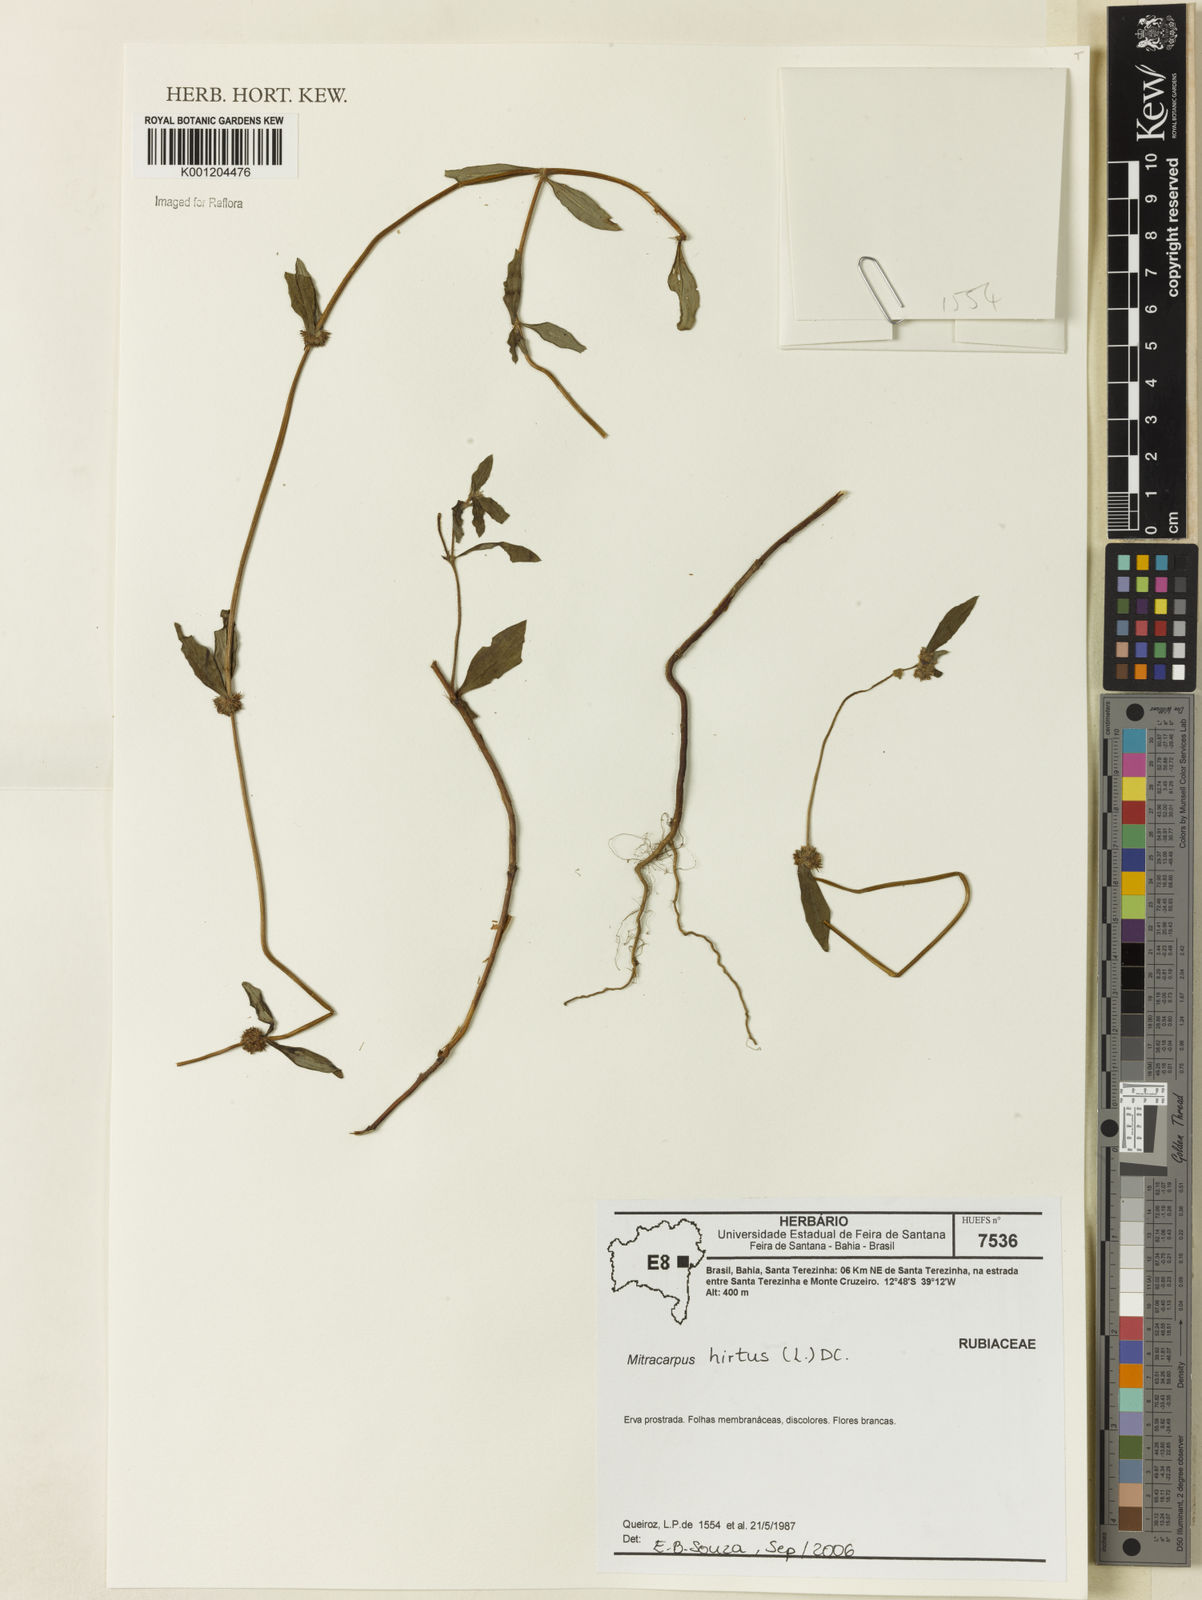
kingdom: Plantae
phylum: Tracheophyta
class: Magnoliopsida
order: Gentianales
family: Rubiaceae
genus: Mitracarpus
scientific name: Mitracarpus hirtus
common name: Tropical girdlepod
